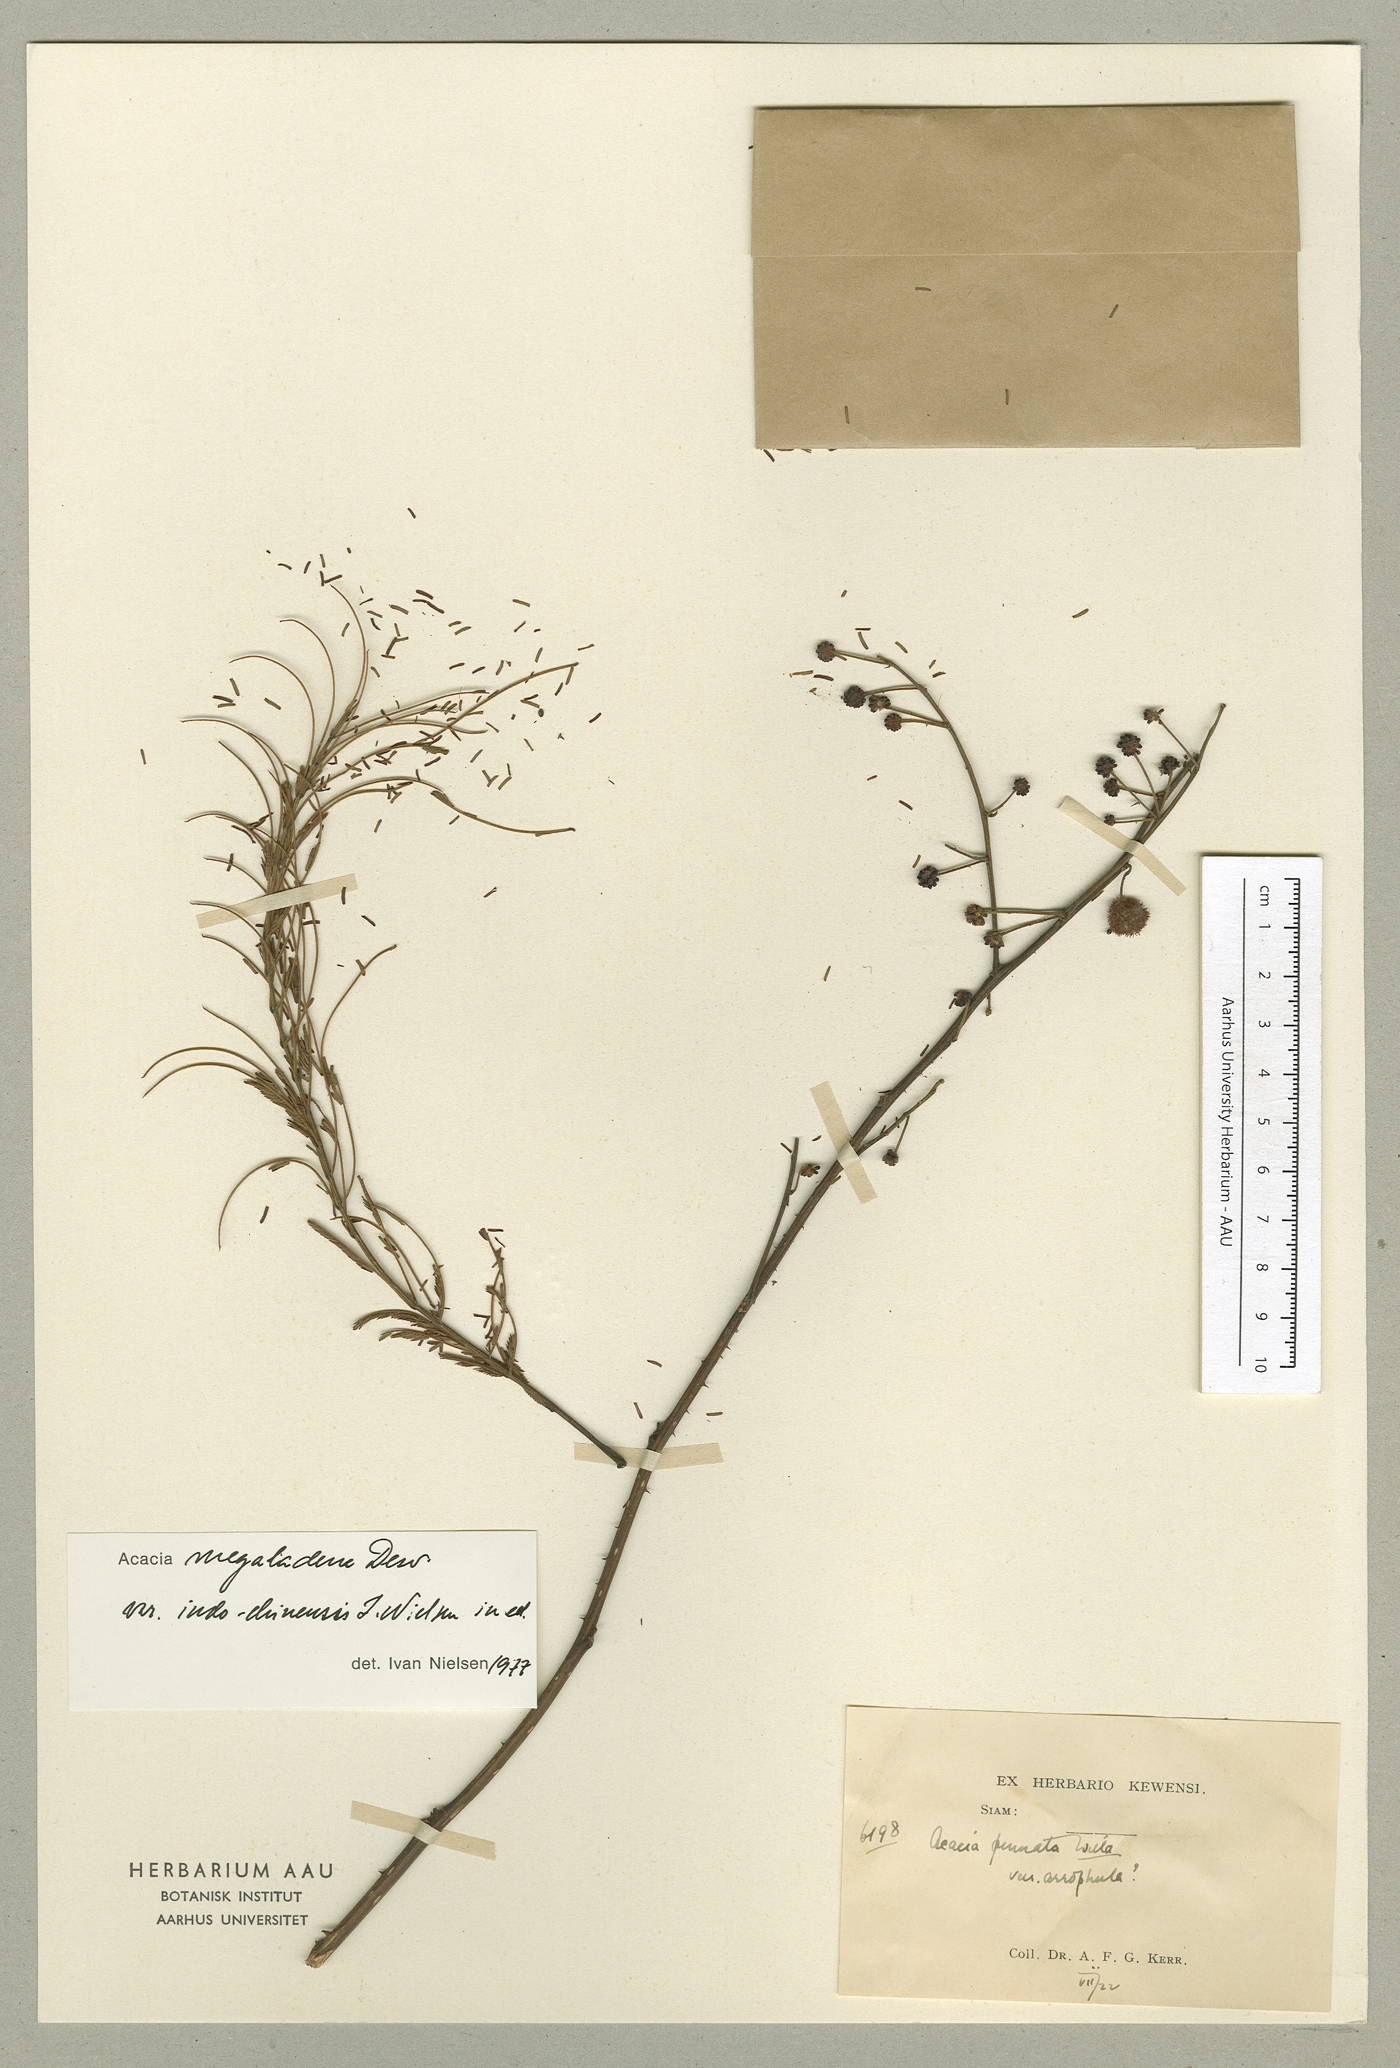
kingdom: Plantae
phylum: Tracheophyta
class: Magnoliopsida
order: Fabales
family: Fabaceae
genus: Senegalia
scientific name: Senegalia megaladena
